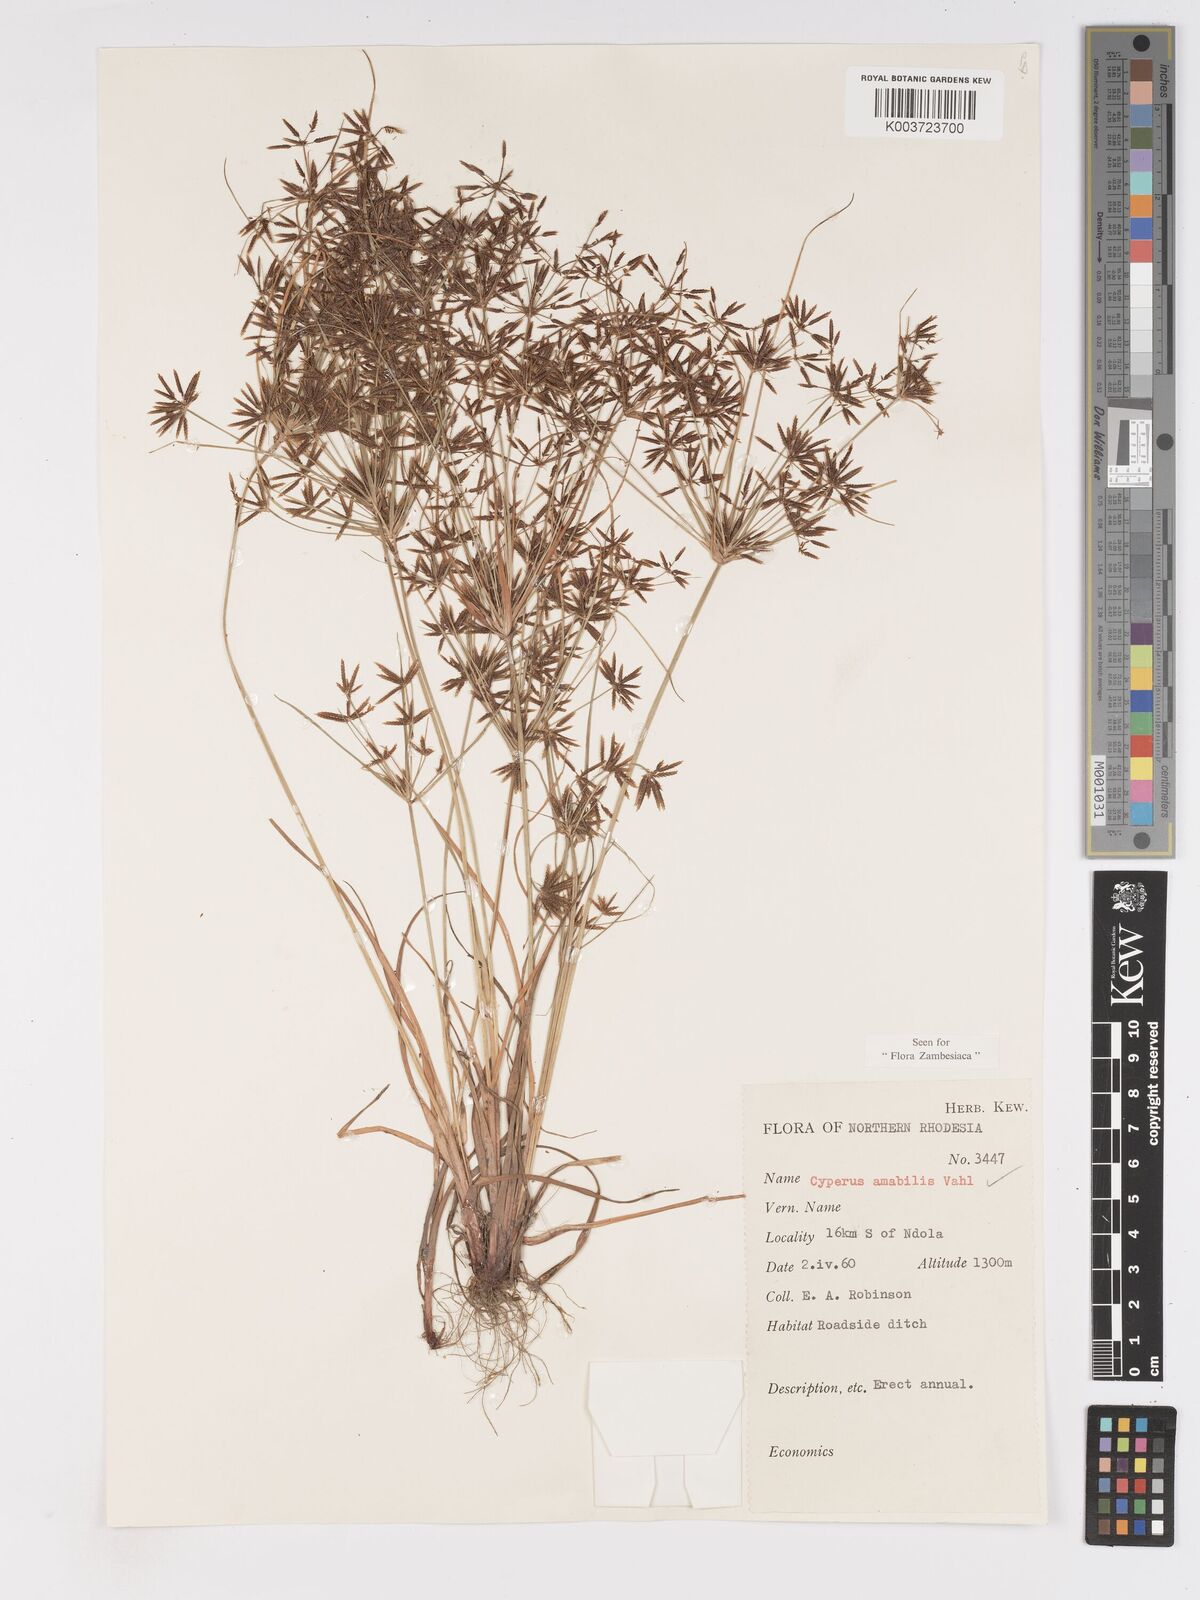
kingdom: Plantae
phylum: Tracheophyta
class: Liliopsida
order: Poales
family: Cyperaceae
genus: Cyperus
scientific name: Cyperus amabilis
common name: Foothill flat sedge
